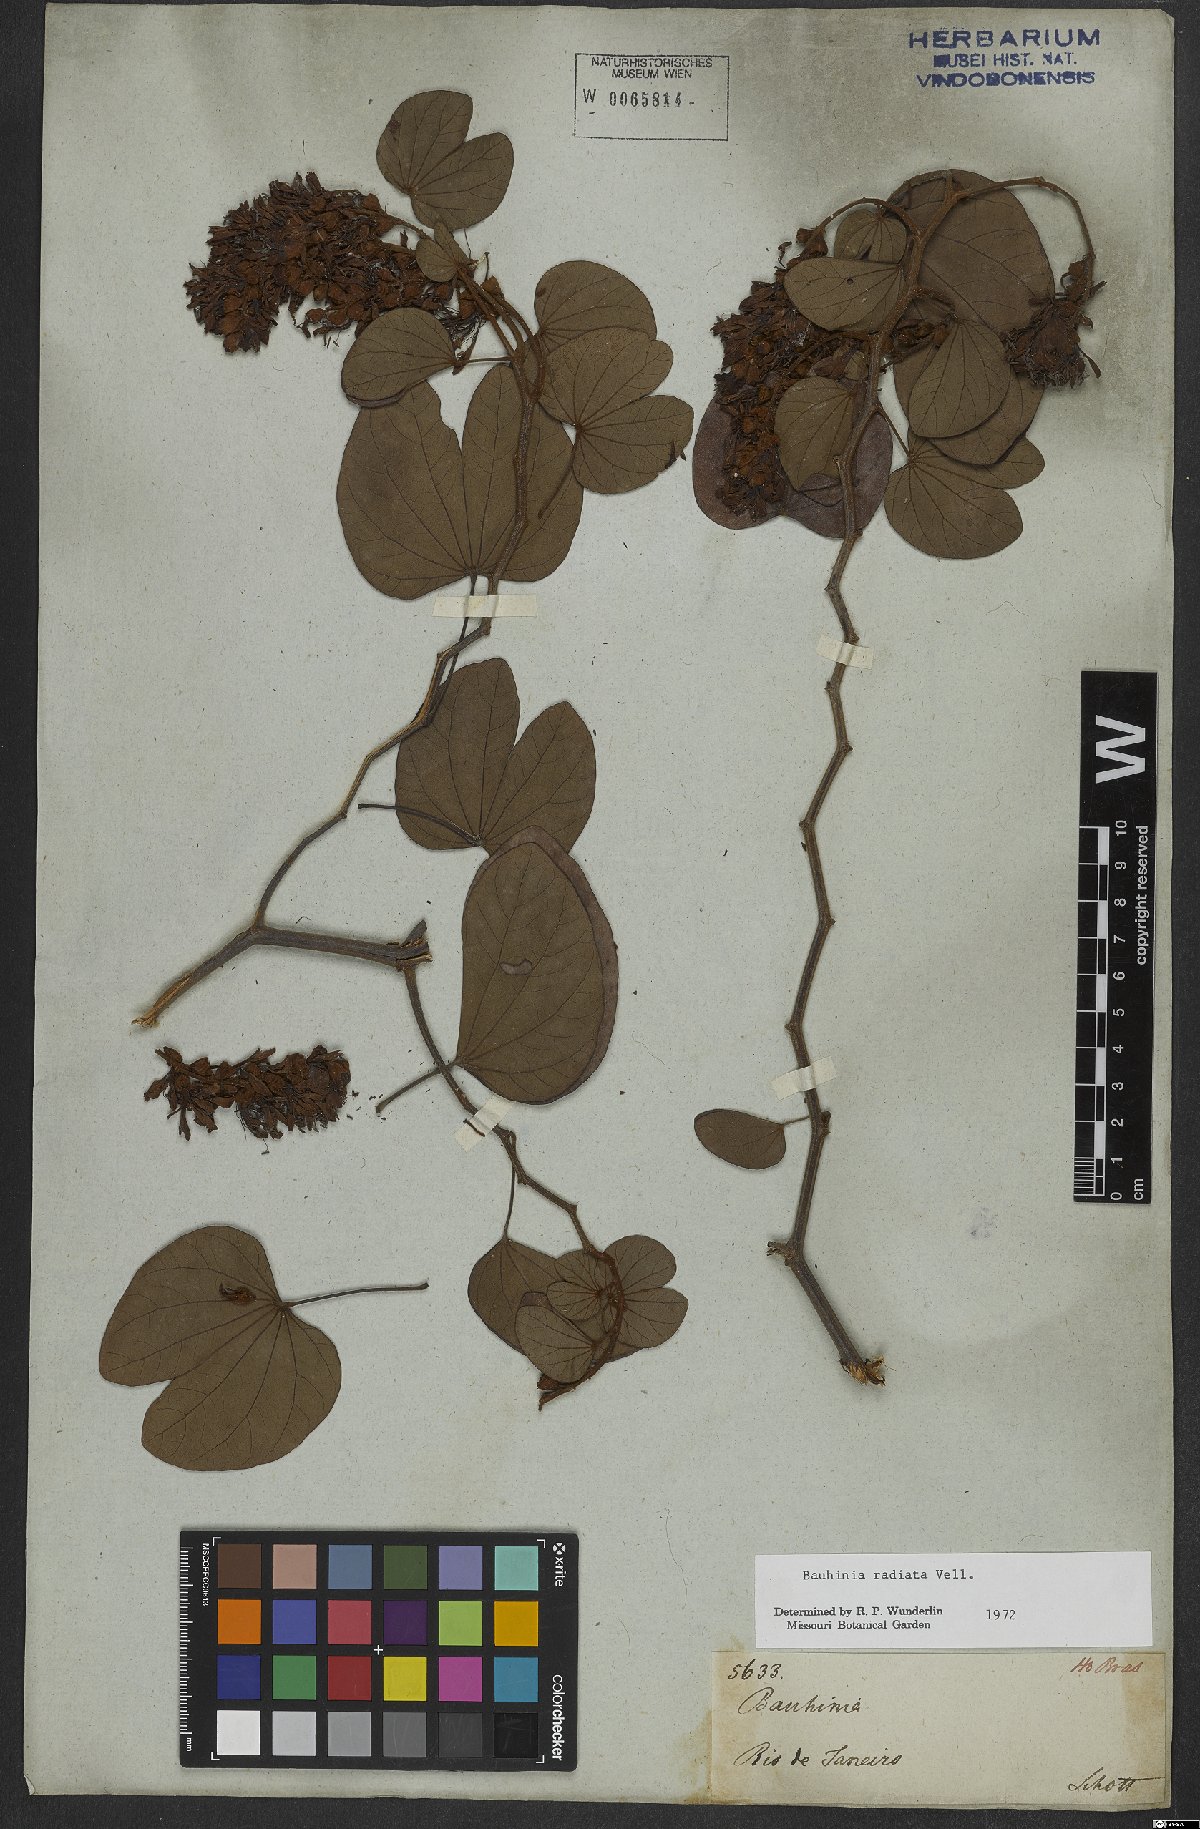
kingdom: Plantae
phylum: Tracheophyta
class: Magnoliopsida
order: Fabales
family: Fabaceae
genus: Schnella
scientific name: Schnella macrostachya
